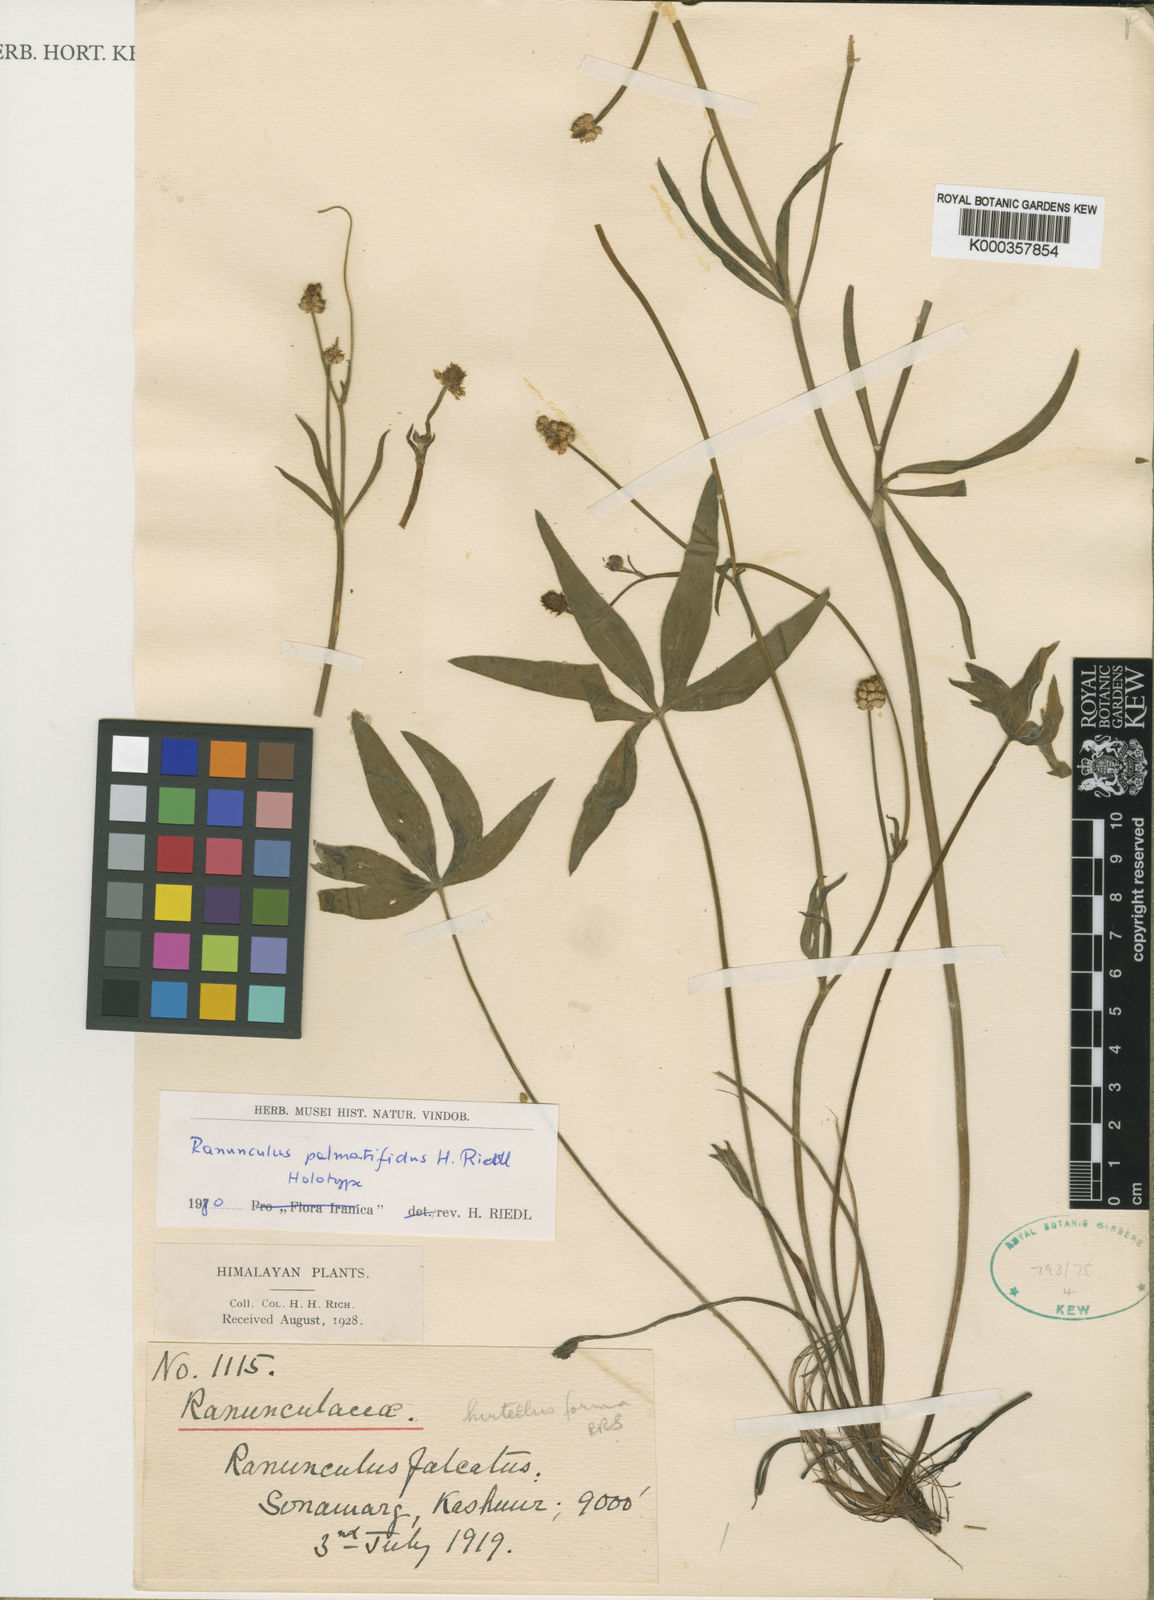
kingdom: Plantae
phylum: Tracheophyta
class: Magnoliopsida
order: Ranunculales
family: Ranunculaceae
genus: Ranunculus
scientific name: Ranunculus palmatifidus
